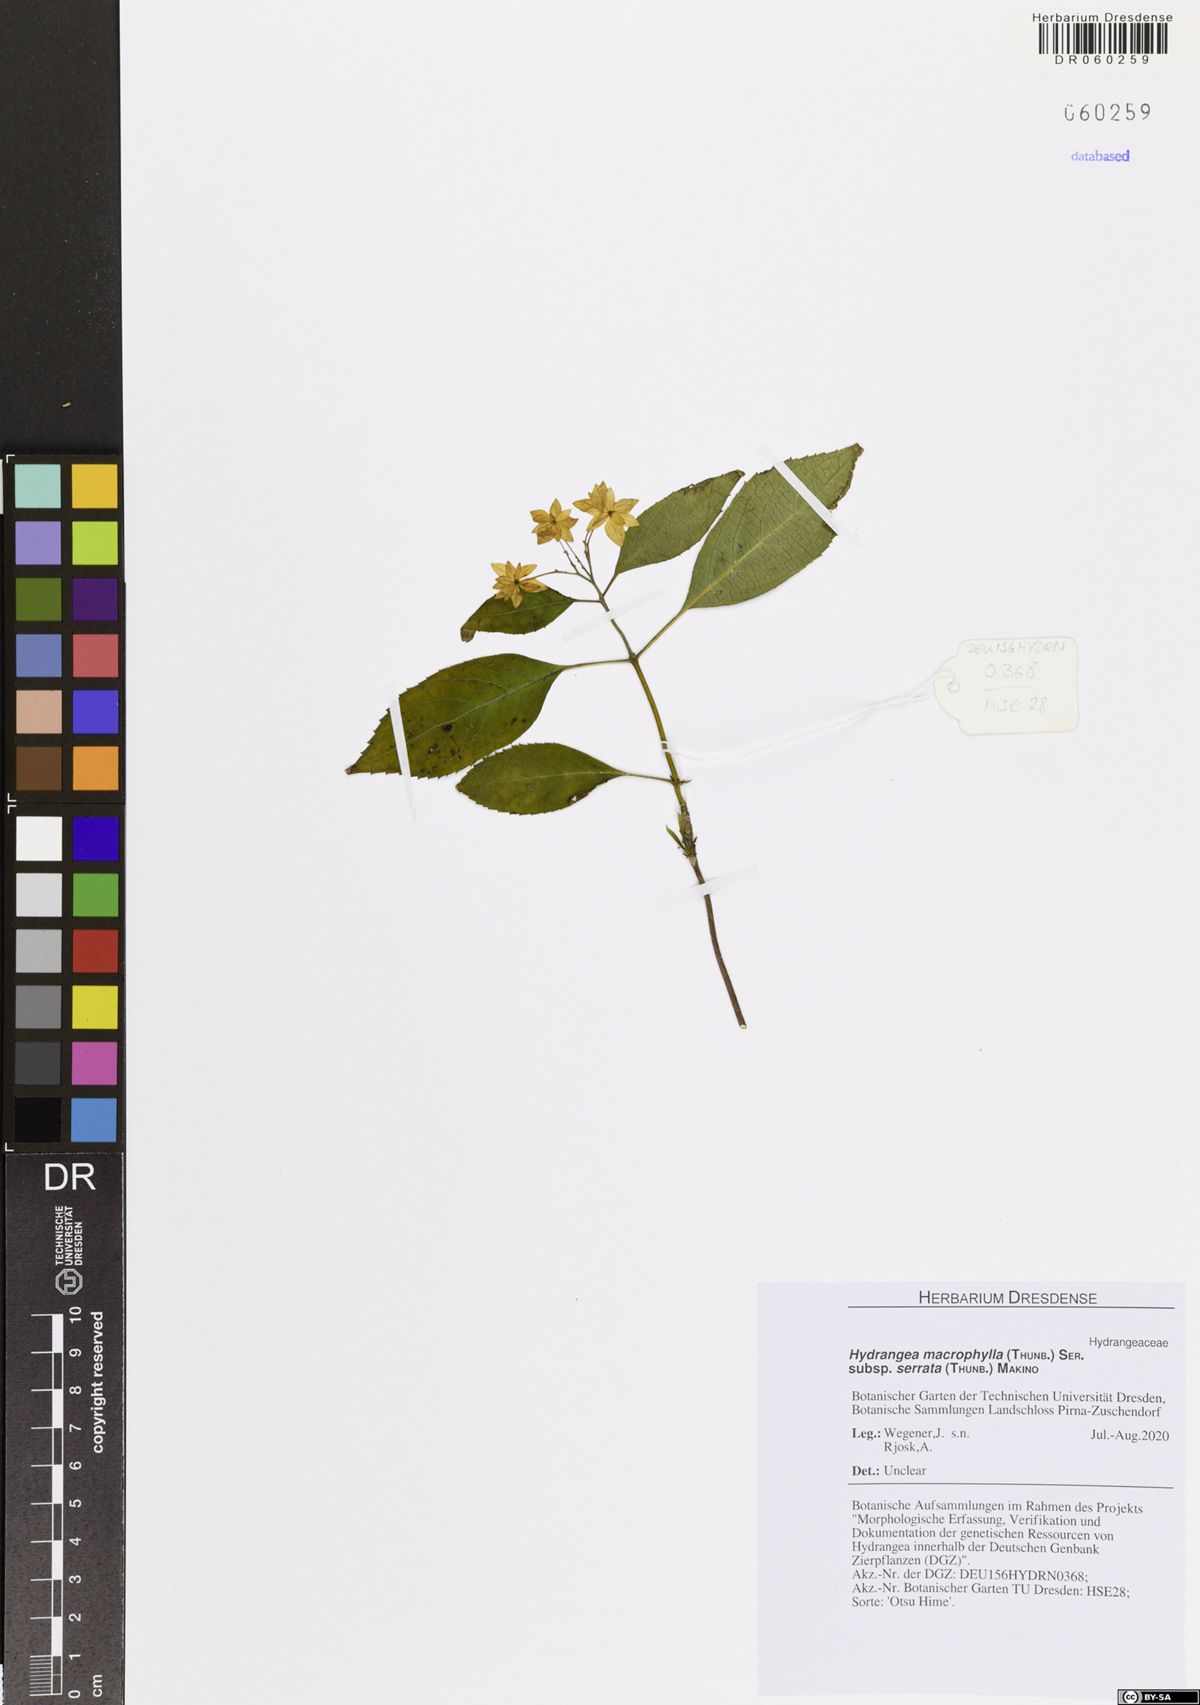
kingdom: Plantae
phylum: Tracheophyta
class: Magnoliopsida
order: Cornales
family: Hydrangeaceae
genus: Hydrangea
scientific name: Hydrangea serrata
